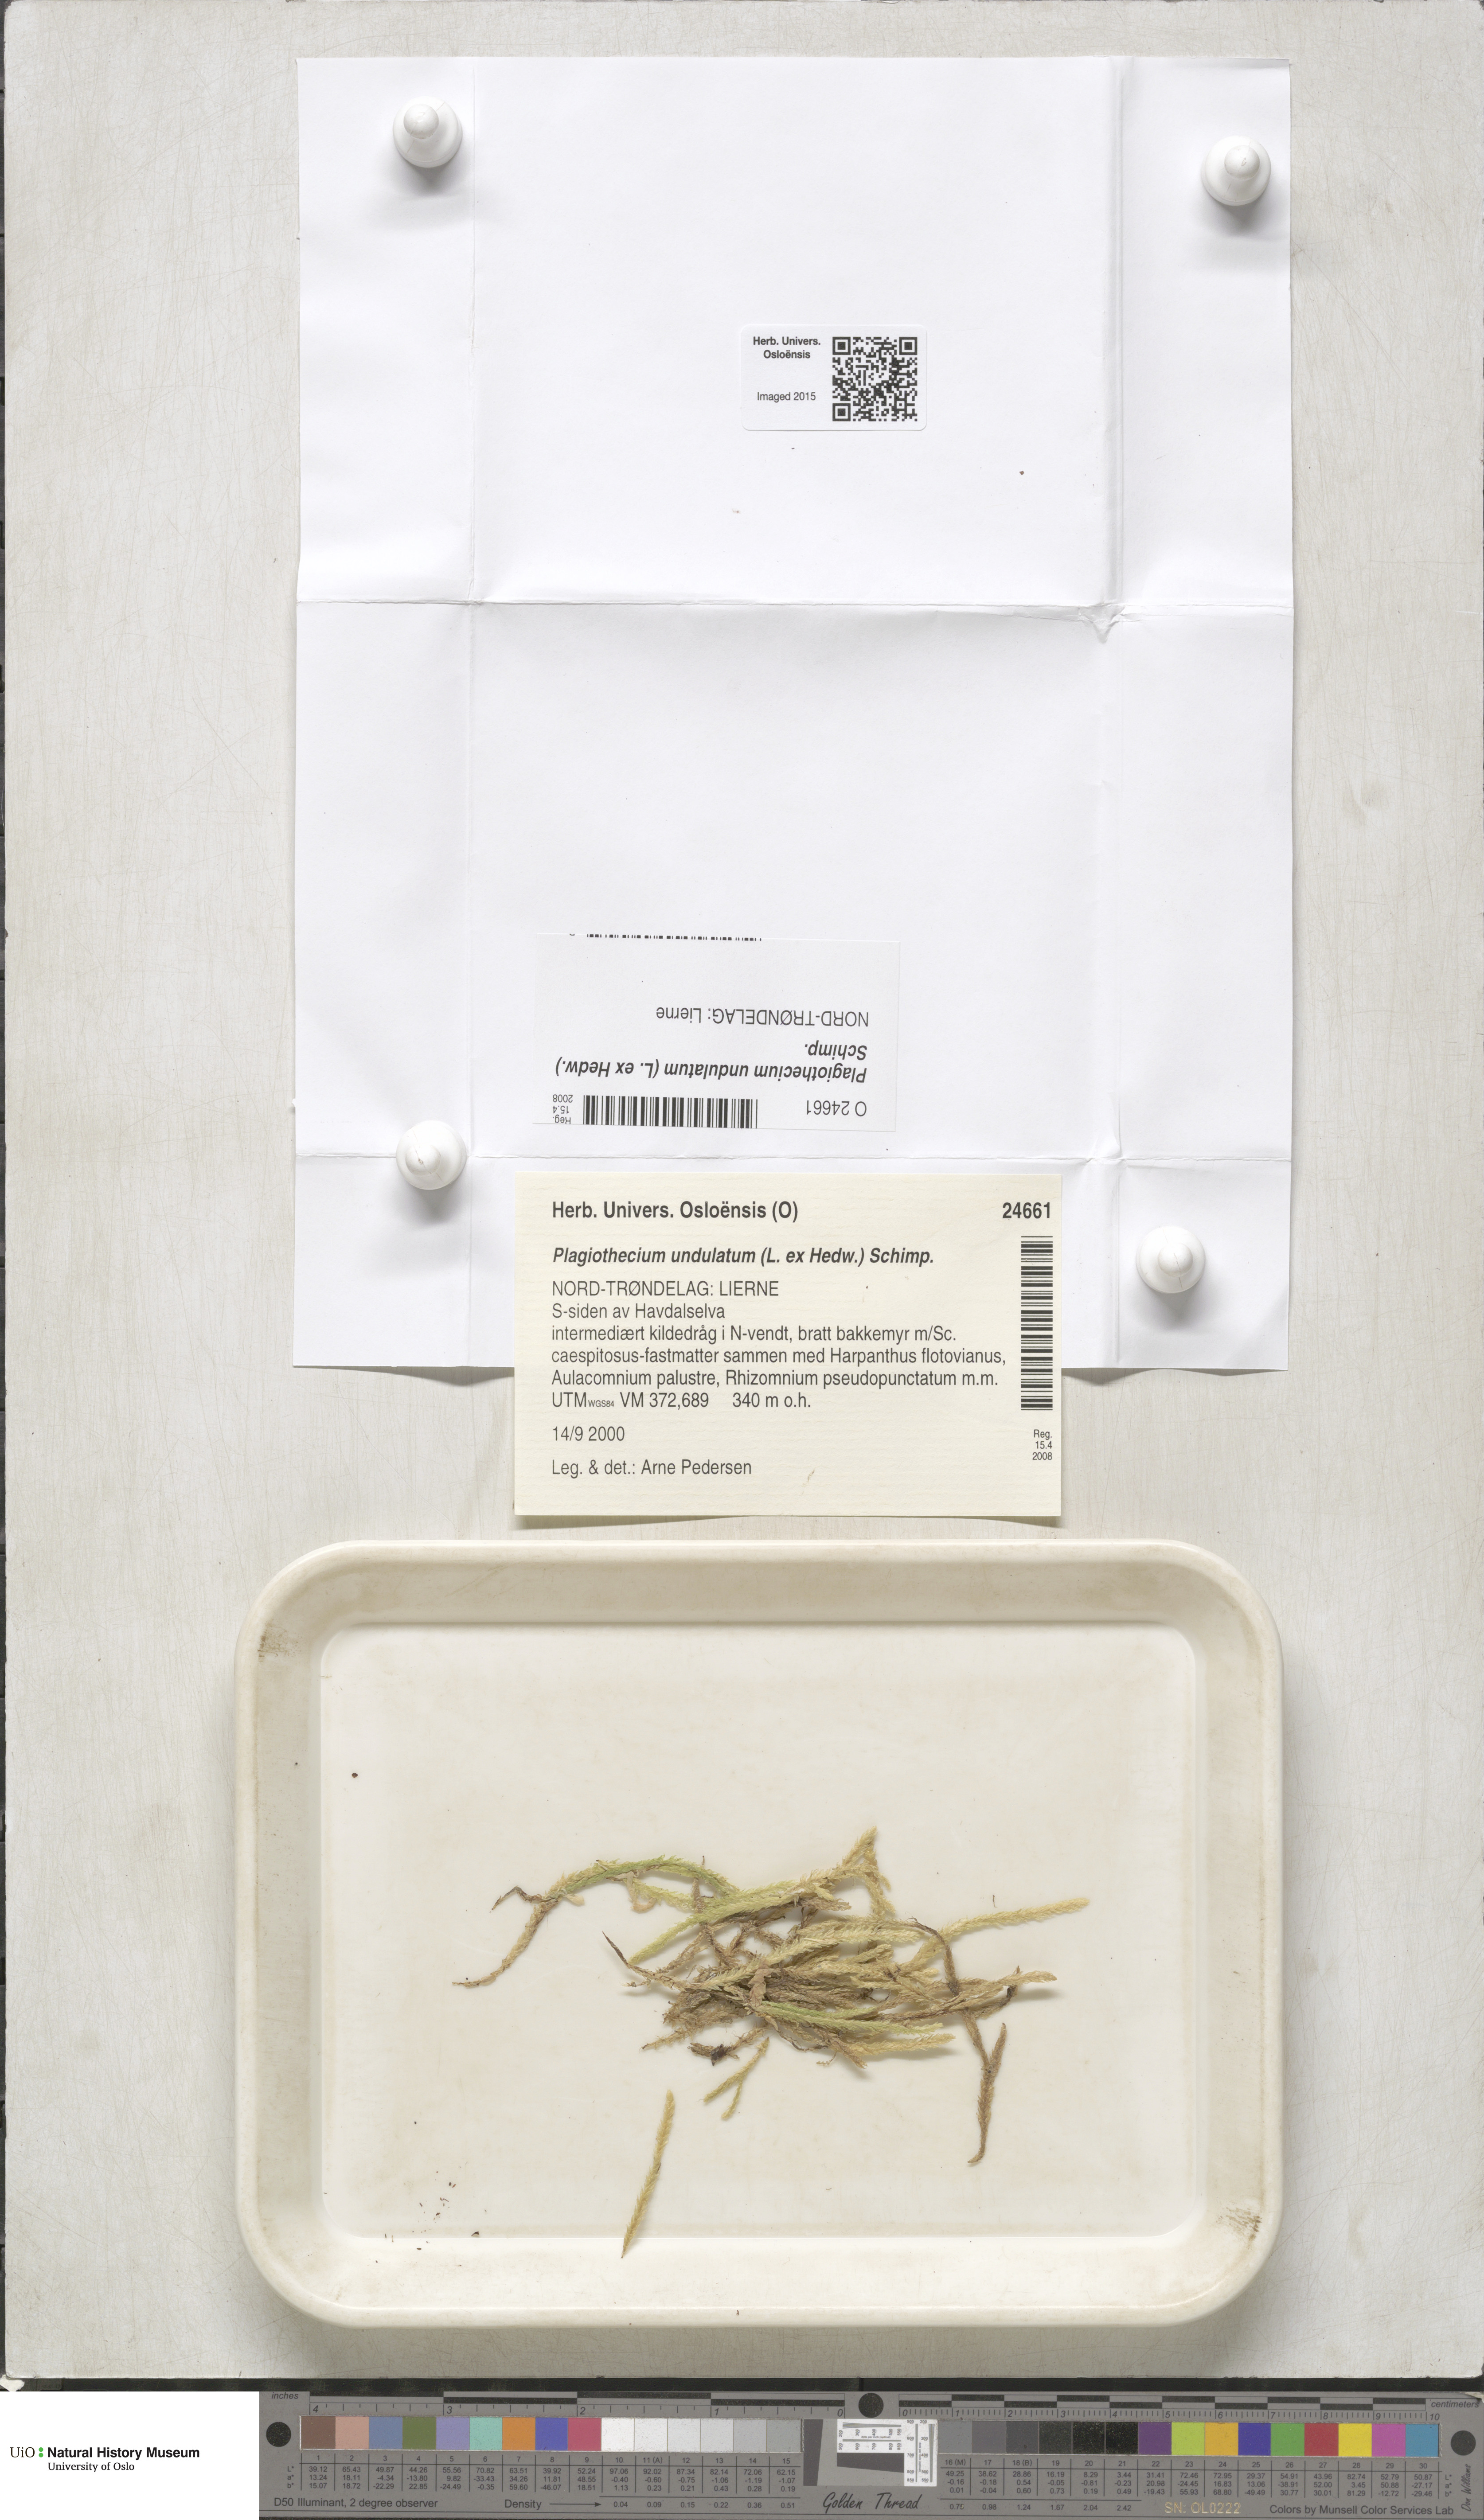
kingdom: Plantae
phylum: Bryophyta
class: Bryopsida
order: Hypnales
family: Plagiotheciaceae
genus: Plagiothecium
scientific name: Plagiothecium undulatum
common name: Waved silk-moss
